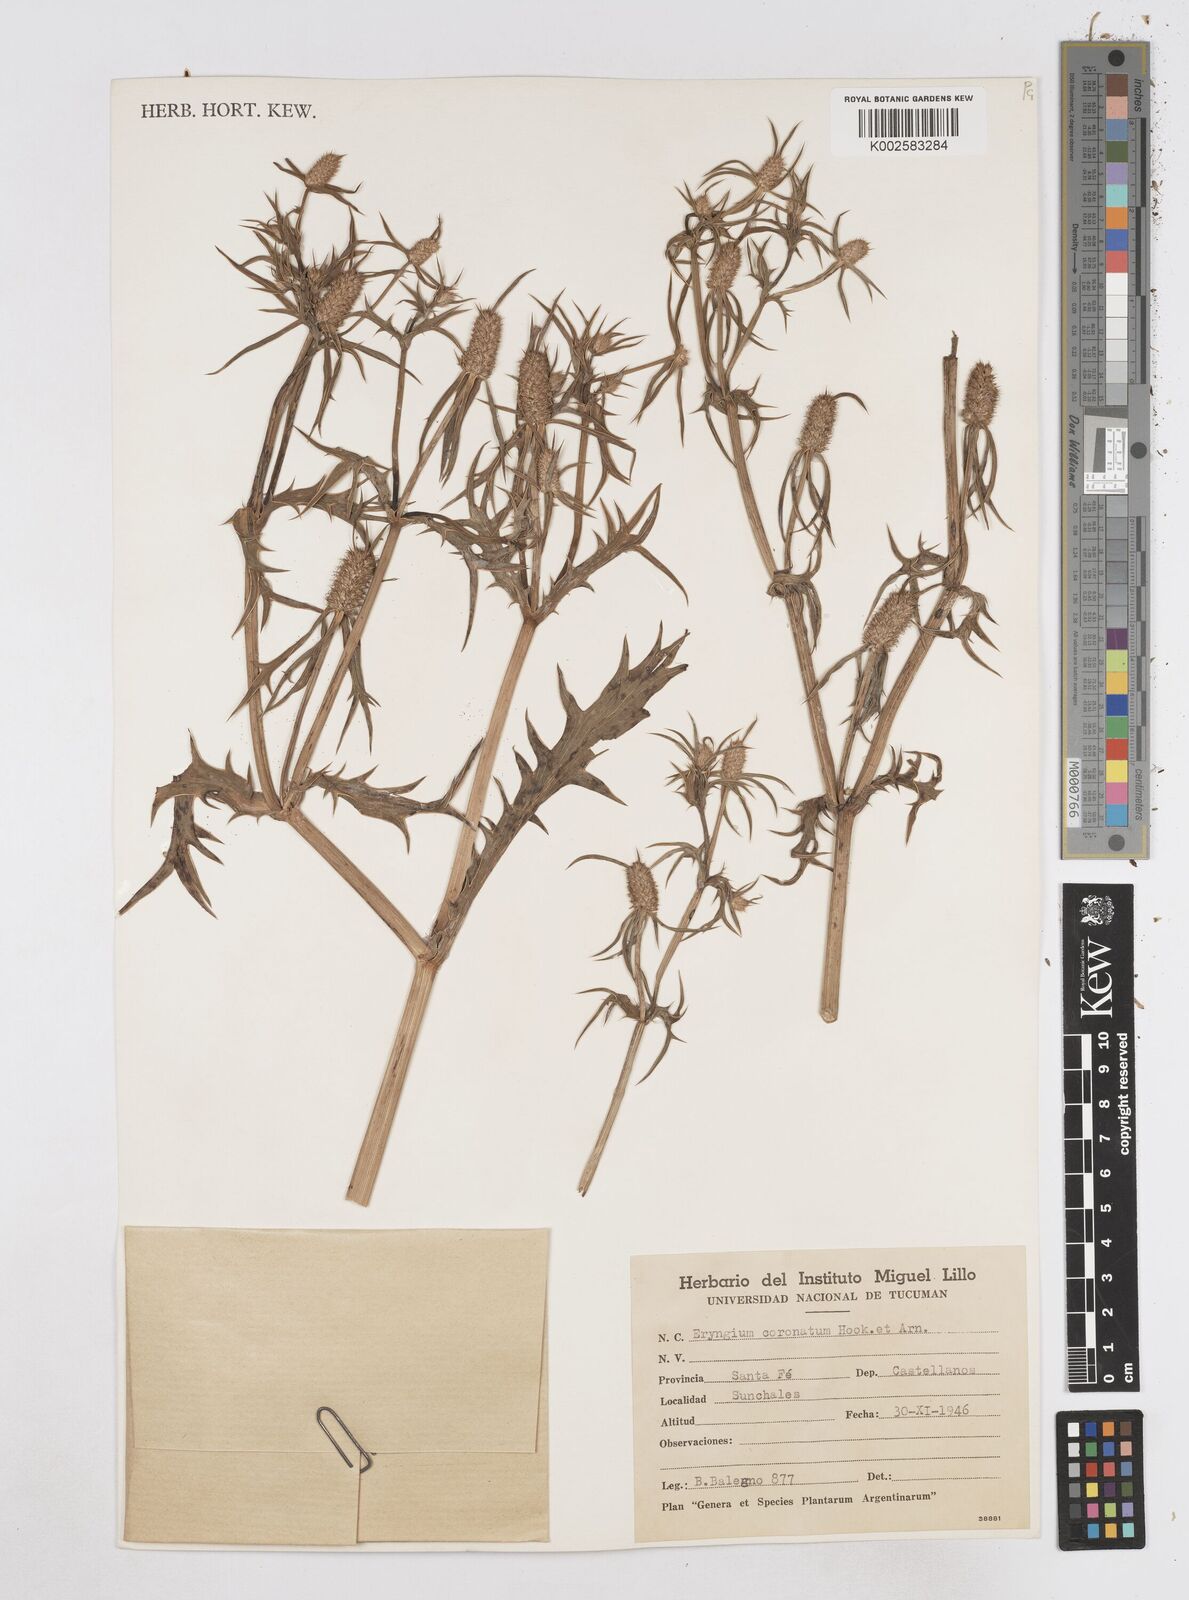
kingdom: Plantae
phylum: Tracheophyta
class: Magnoliopsida
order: Apiales
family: Apiaceae
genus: Eryngium
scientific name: Eryngium coronatum
